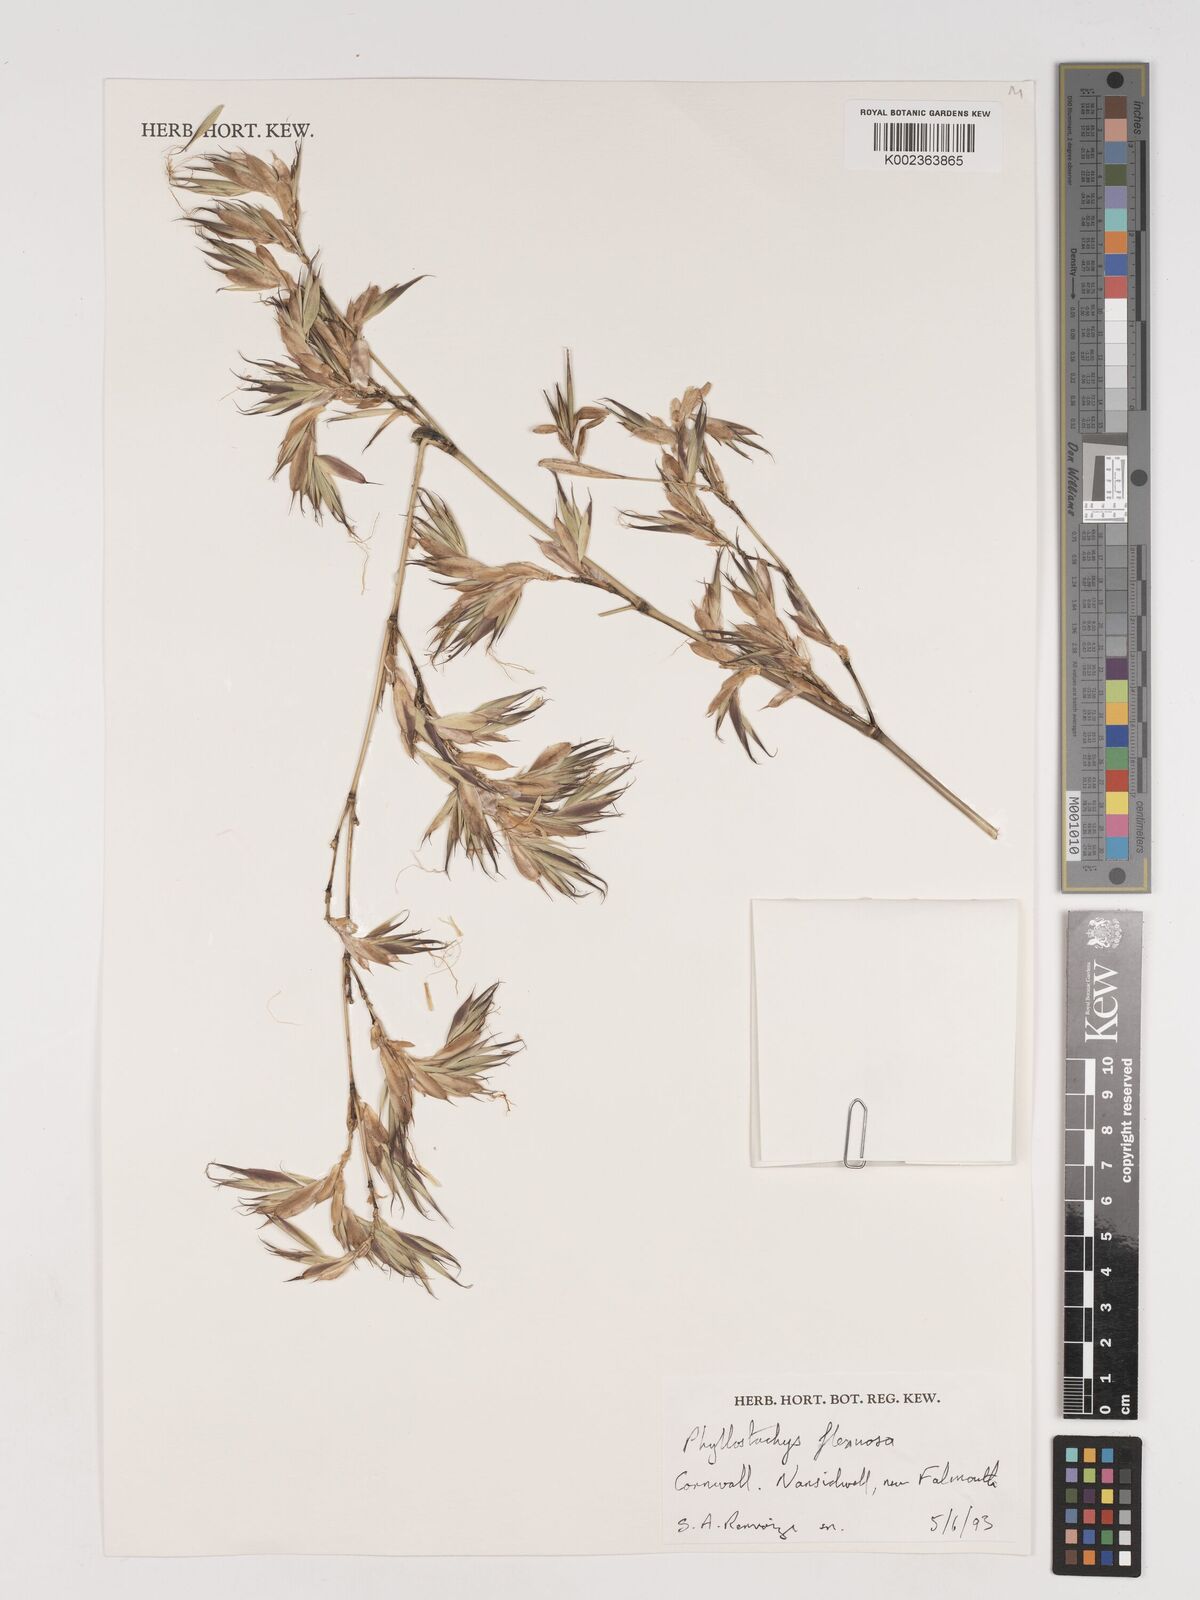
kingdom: Plantae
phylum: Tracheophyta
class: Liliopsida
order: Poales
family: Poaceae
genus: Phyllostachys
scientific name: Phyllostachys flexuosa
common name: Drooping timber bamboo
